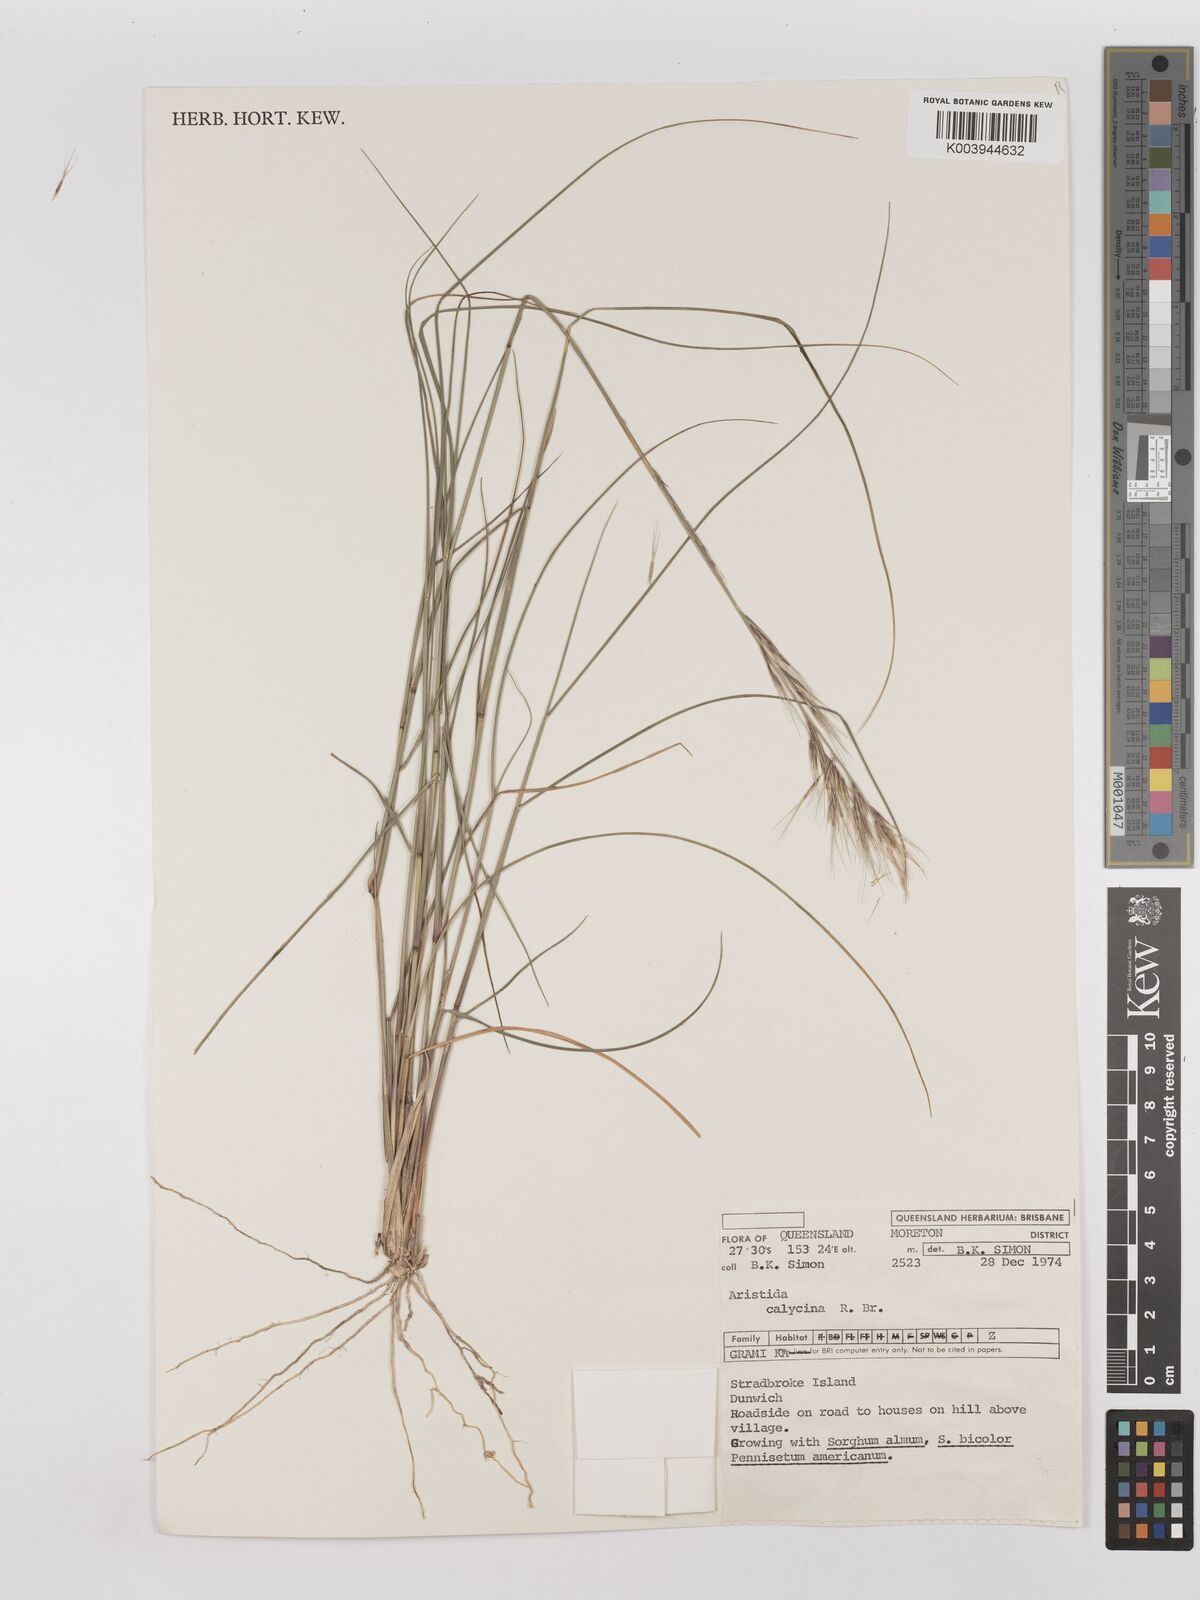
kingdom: Plantae
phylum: Tracheophyta
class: Liliopsida
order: Poales
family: Poaceae
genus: Aristida
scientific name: Aristida calycina
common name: Dark wire grass
